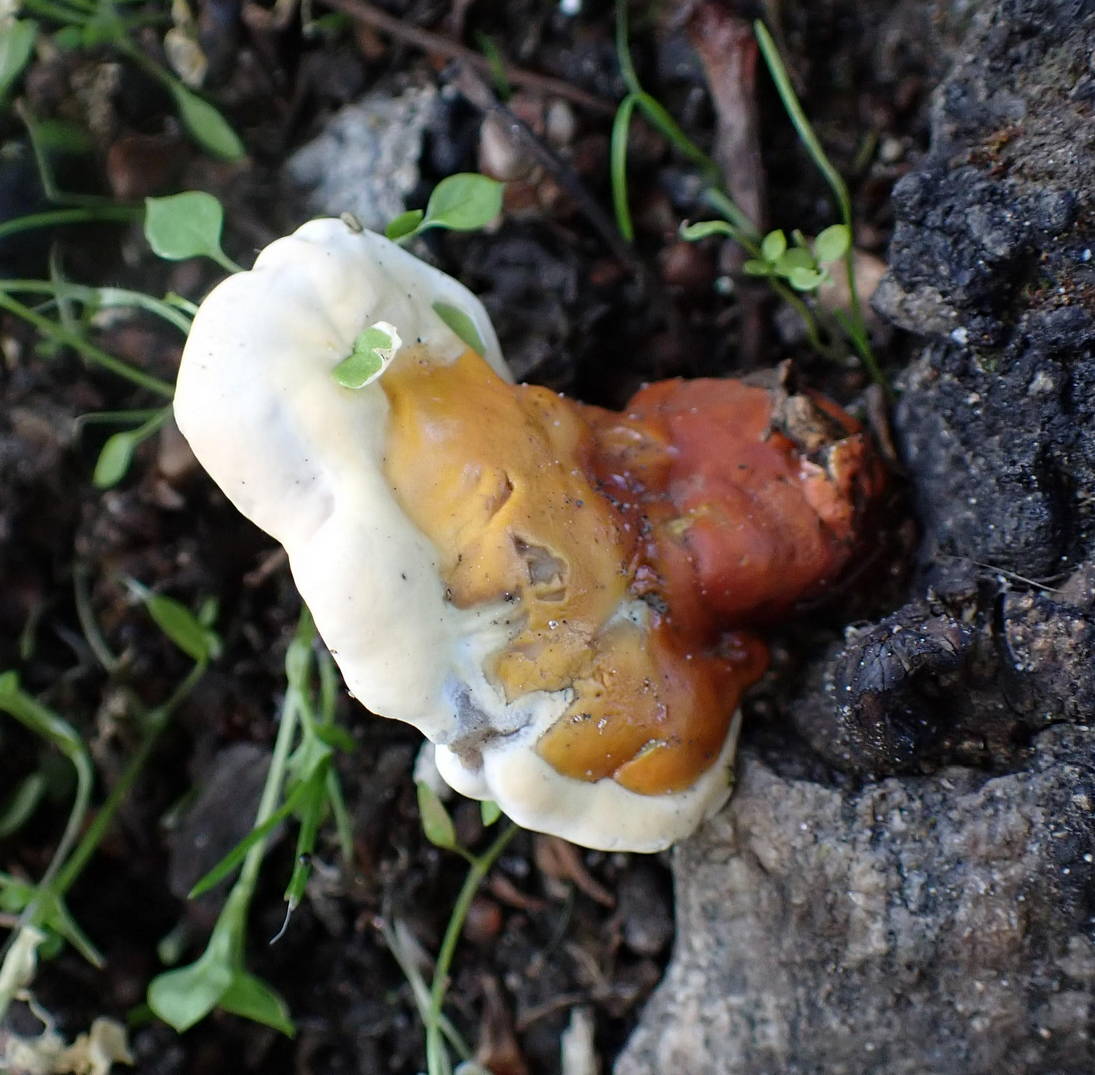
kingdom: Fungi
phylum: Basidiomycota
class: Agaricomycetes
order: Polyporales
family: Polyporaceae
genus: Ganoderma
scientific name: Ganoderma resinaceum
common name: gyldenbrun lakporesvamp
